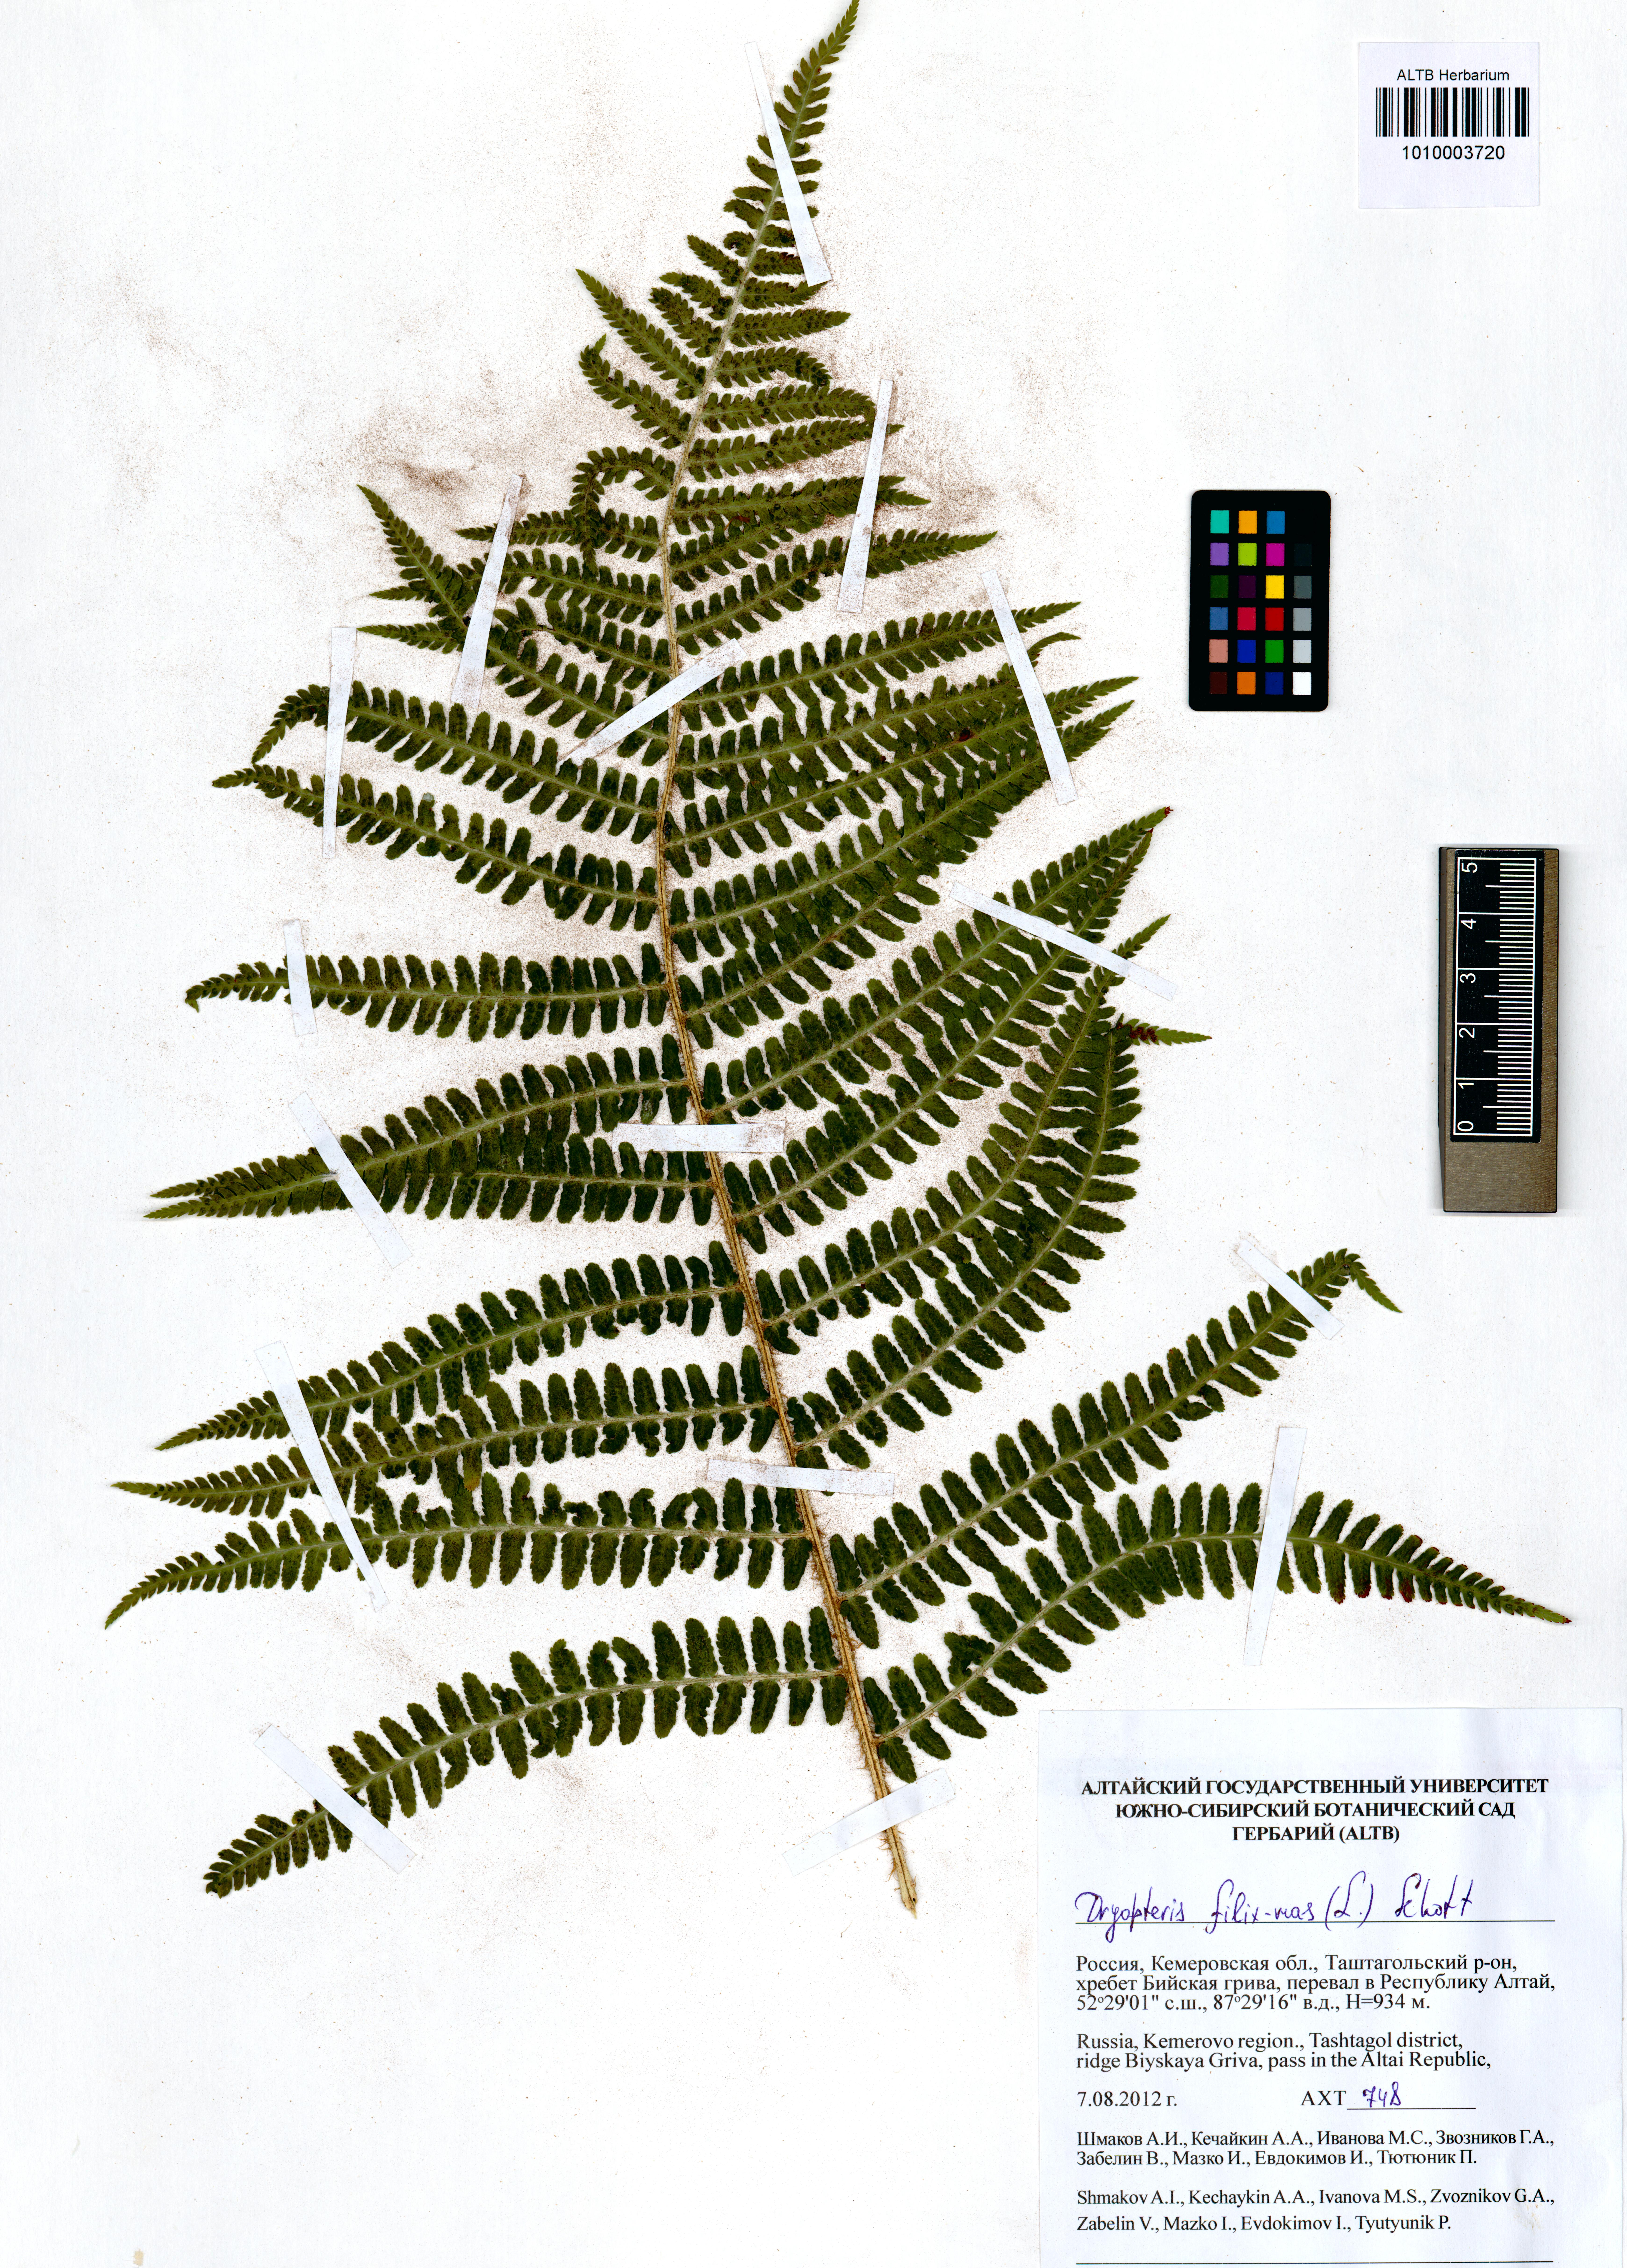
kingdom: Plantae
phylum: Tracheophyta
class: Polypodiopsida
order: Polypodiales
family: Dryopteridaceae
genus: Dryopteris
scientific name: Dryopteris filix-mas
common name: Male fern
